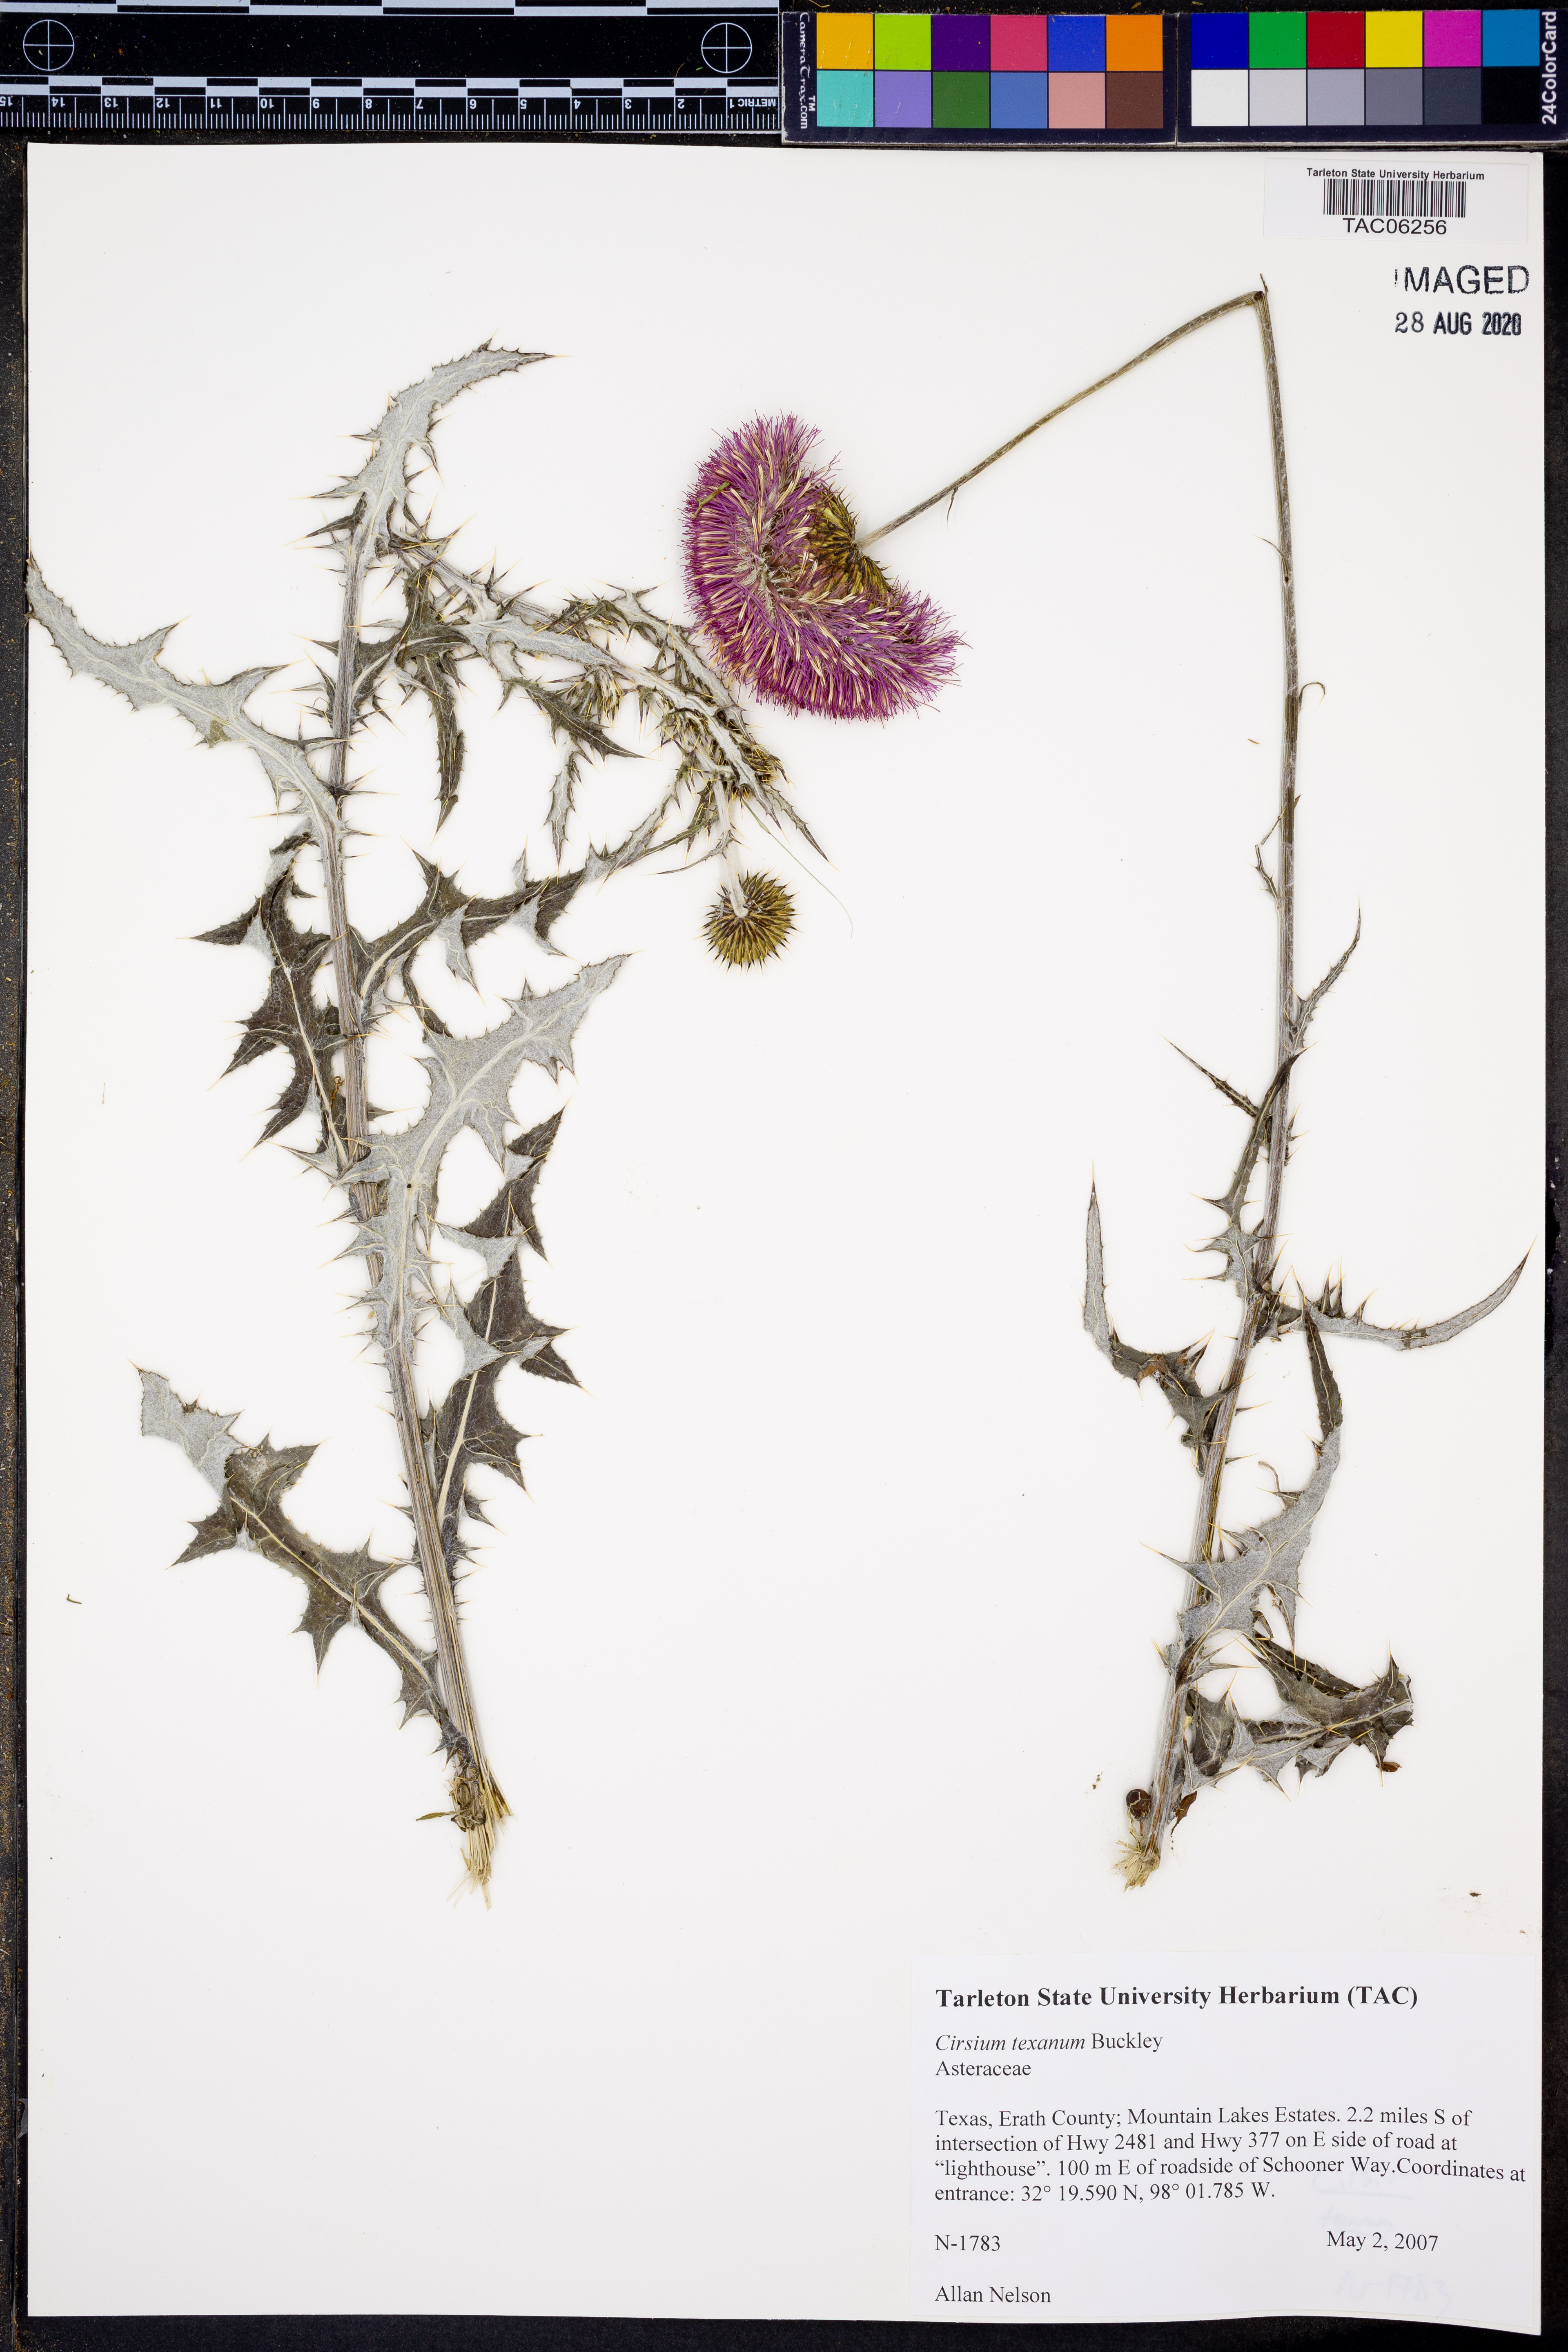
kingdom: Plantae
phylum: Tracheophyta
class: Magnoliopsida
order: Asterales
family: Asteraceae
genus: Cirsium
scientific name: Cirsium texanum
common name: Texas purple thistle
